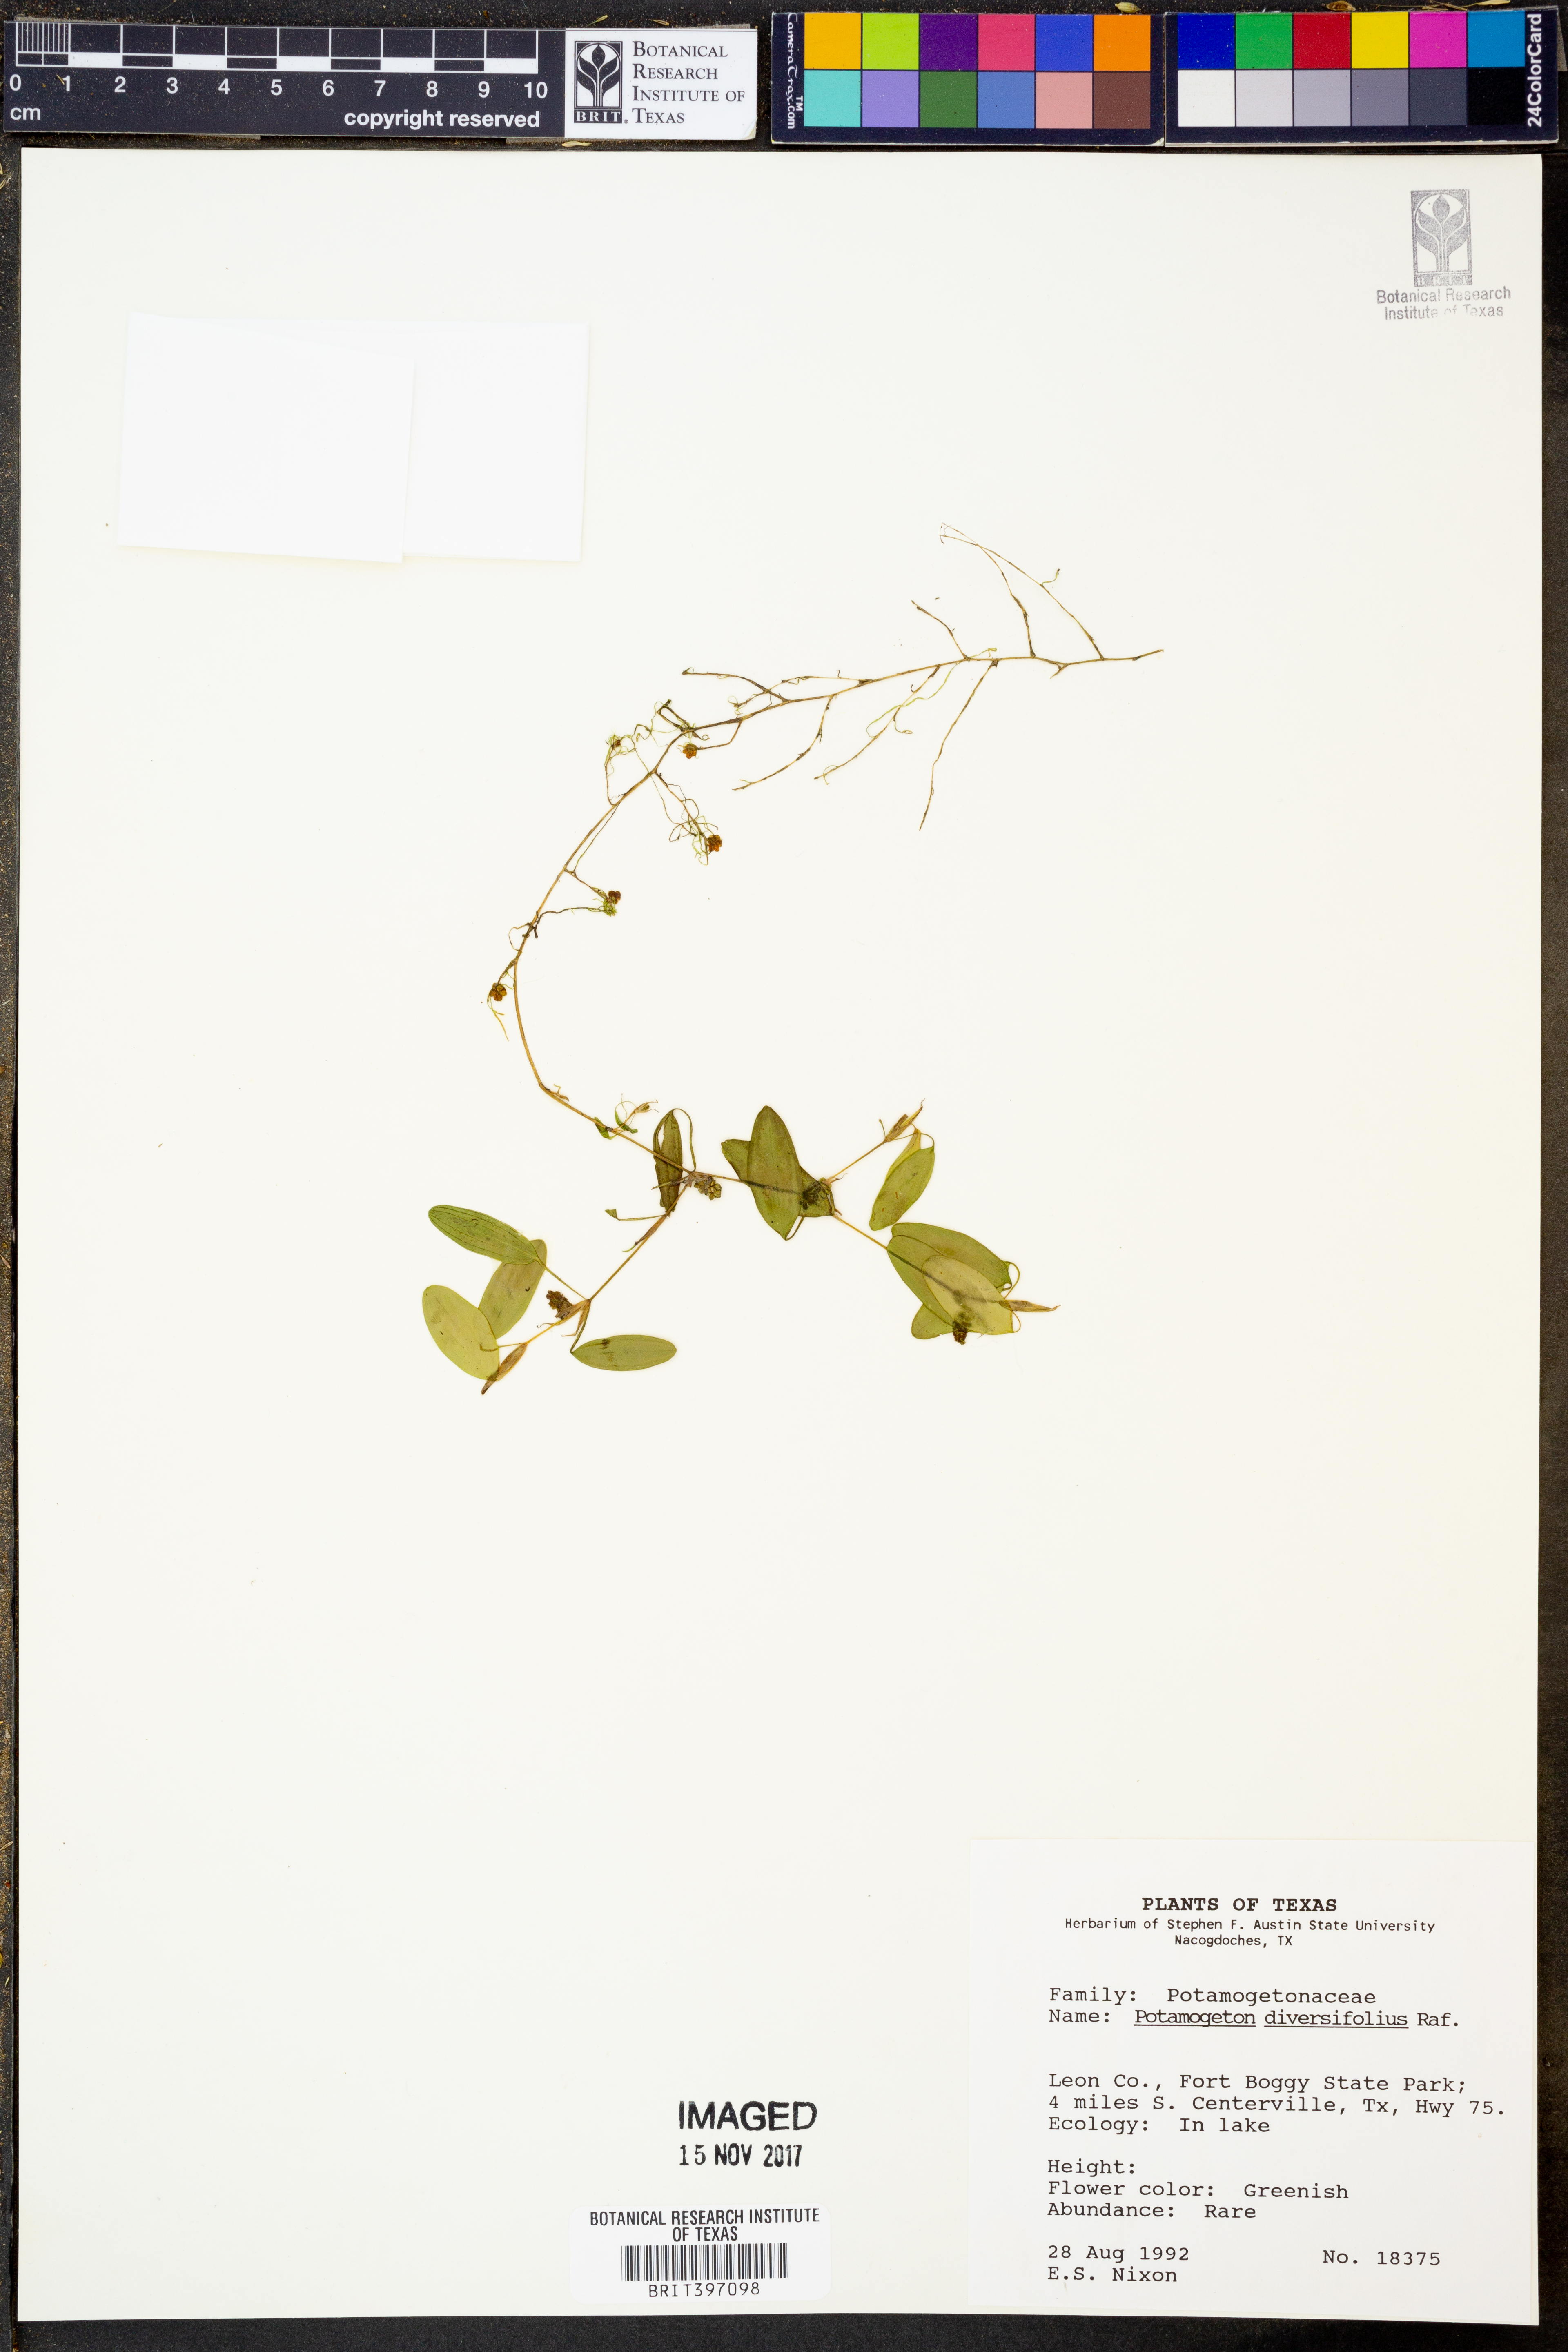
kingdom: Plantae
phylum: Tracheophyta
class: Liliopsida
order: Alismatales
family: Potamogetonaceae
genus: Potamogeton
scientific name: Potamogeton diversifolius
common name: Water-thread pondweed
